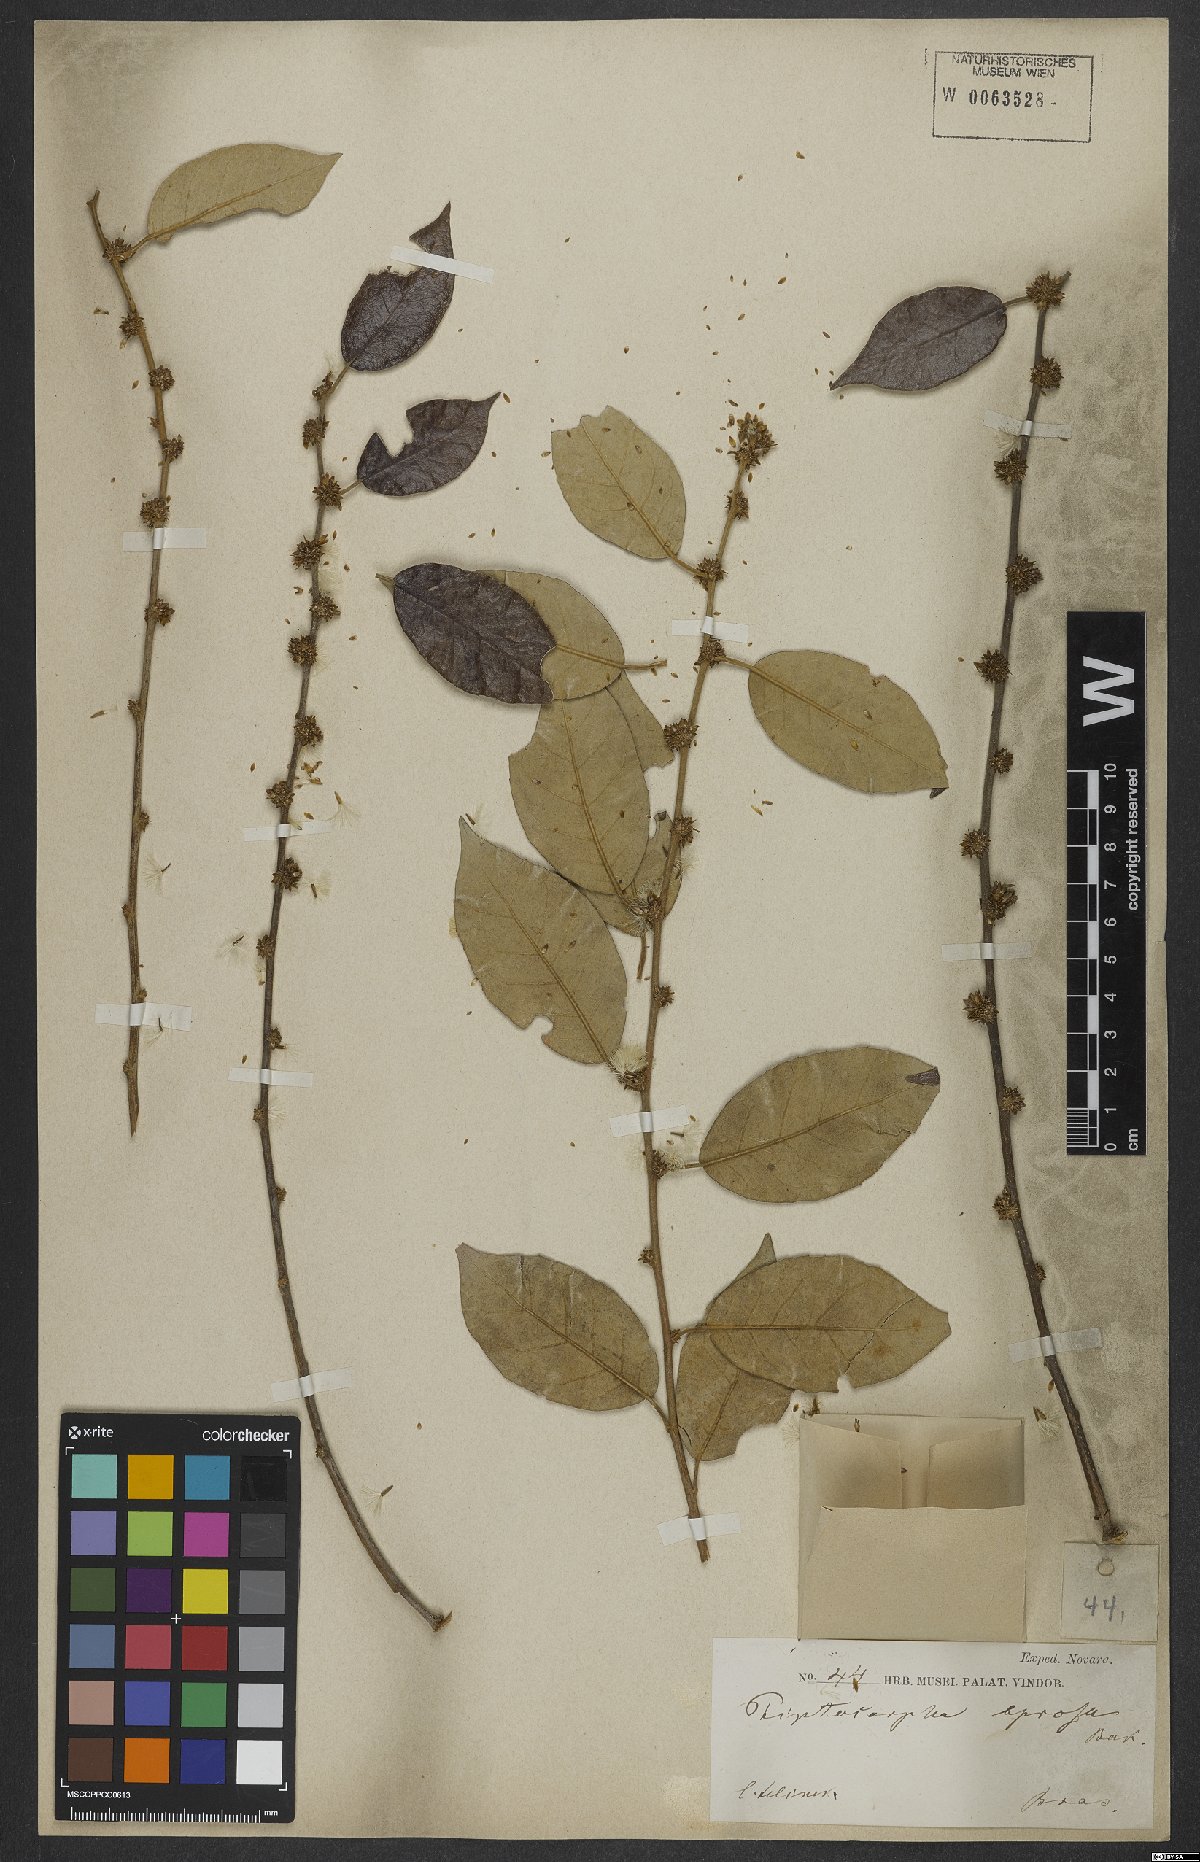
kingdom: Plantae
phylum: Tracheophyta
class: Magnoliopsida
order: Asterales
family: Asteraceae
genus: Piptocarpha
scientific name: Piptocarpha leprosa
